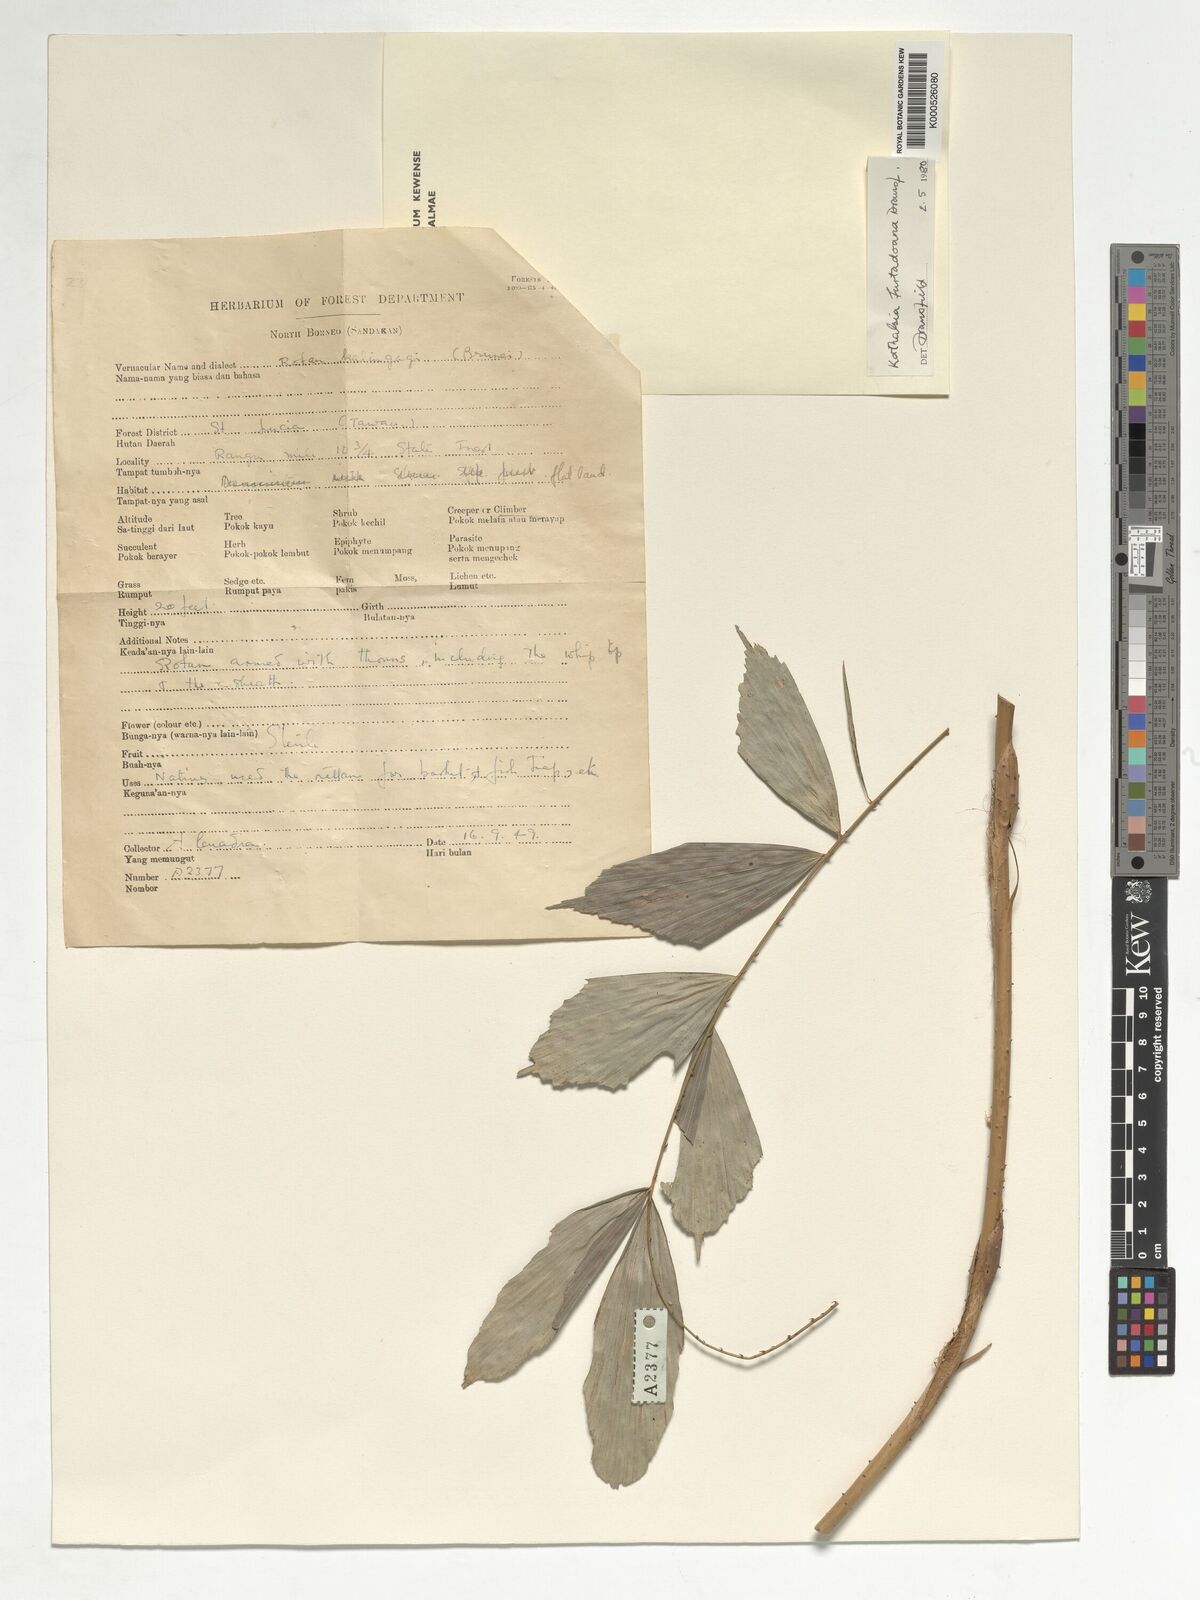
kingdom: Plantae
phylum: Tracheophyta
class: Liliopsida
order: Arecales
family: Arecaceae
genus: Korthalsia
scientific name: Korthalsia furtadoana
